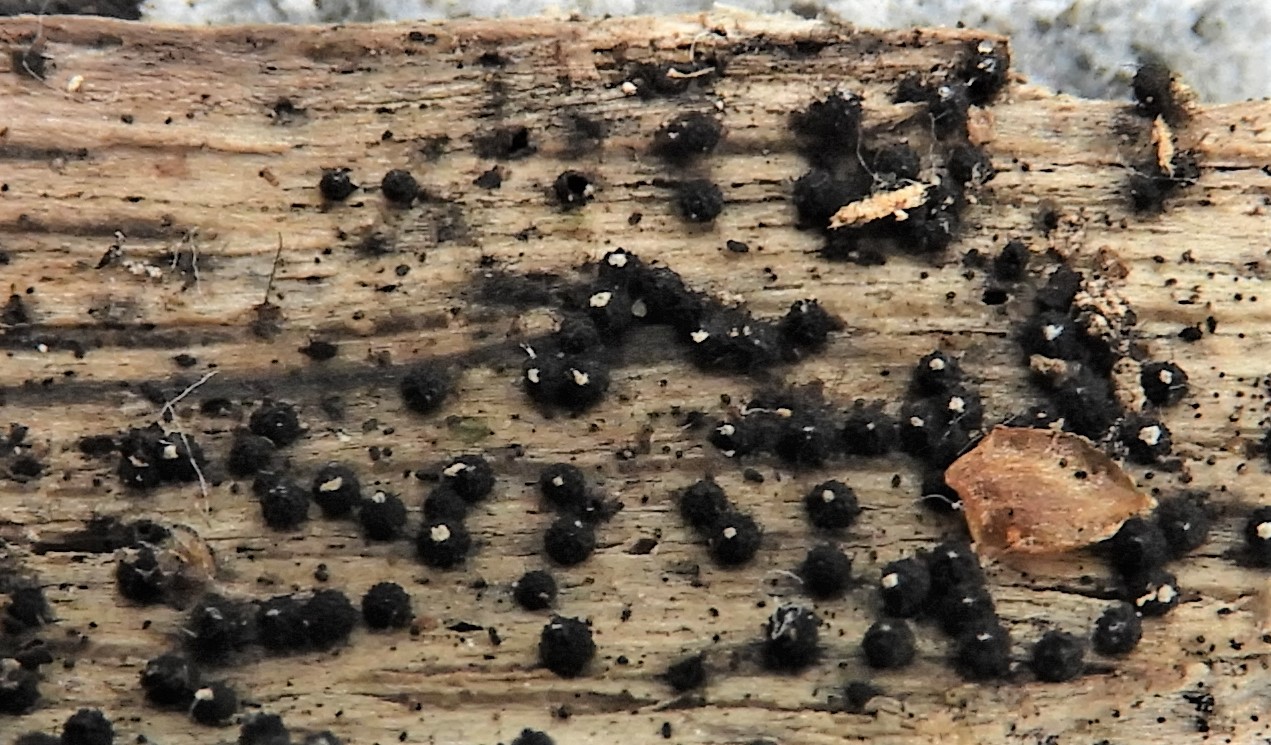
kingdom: Fungi
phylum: Ascomycota
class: Sordariomycetes
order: Sordariales
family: Lasiosphaeriaceae
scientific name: Lasiosphaeriaceae
